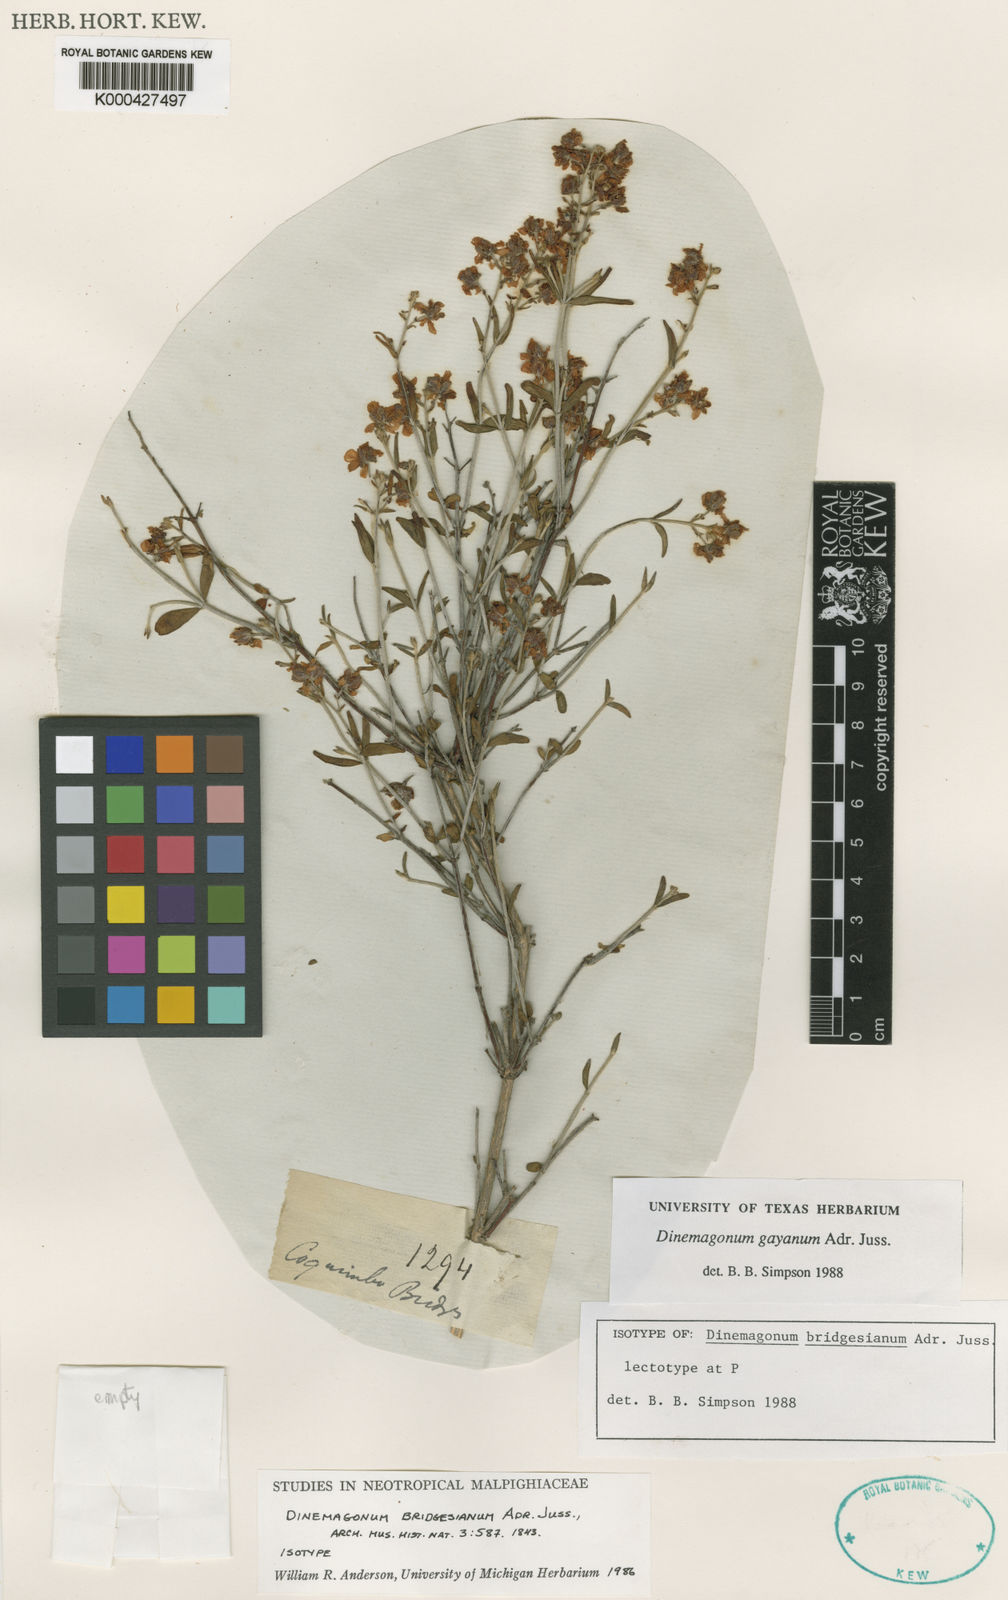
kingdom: Plantae
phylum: Tracheophyta
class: Magnoliopsida
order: Malpighiales
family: Malpighiaceae
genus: Dinemagonum
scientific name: Dinemagonum gayanum
